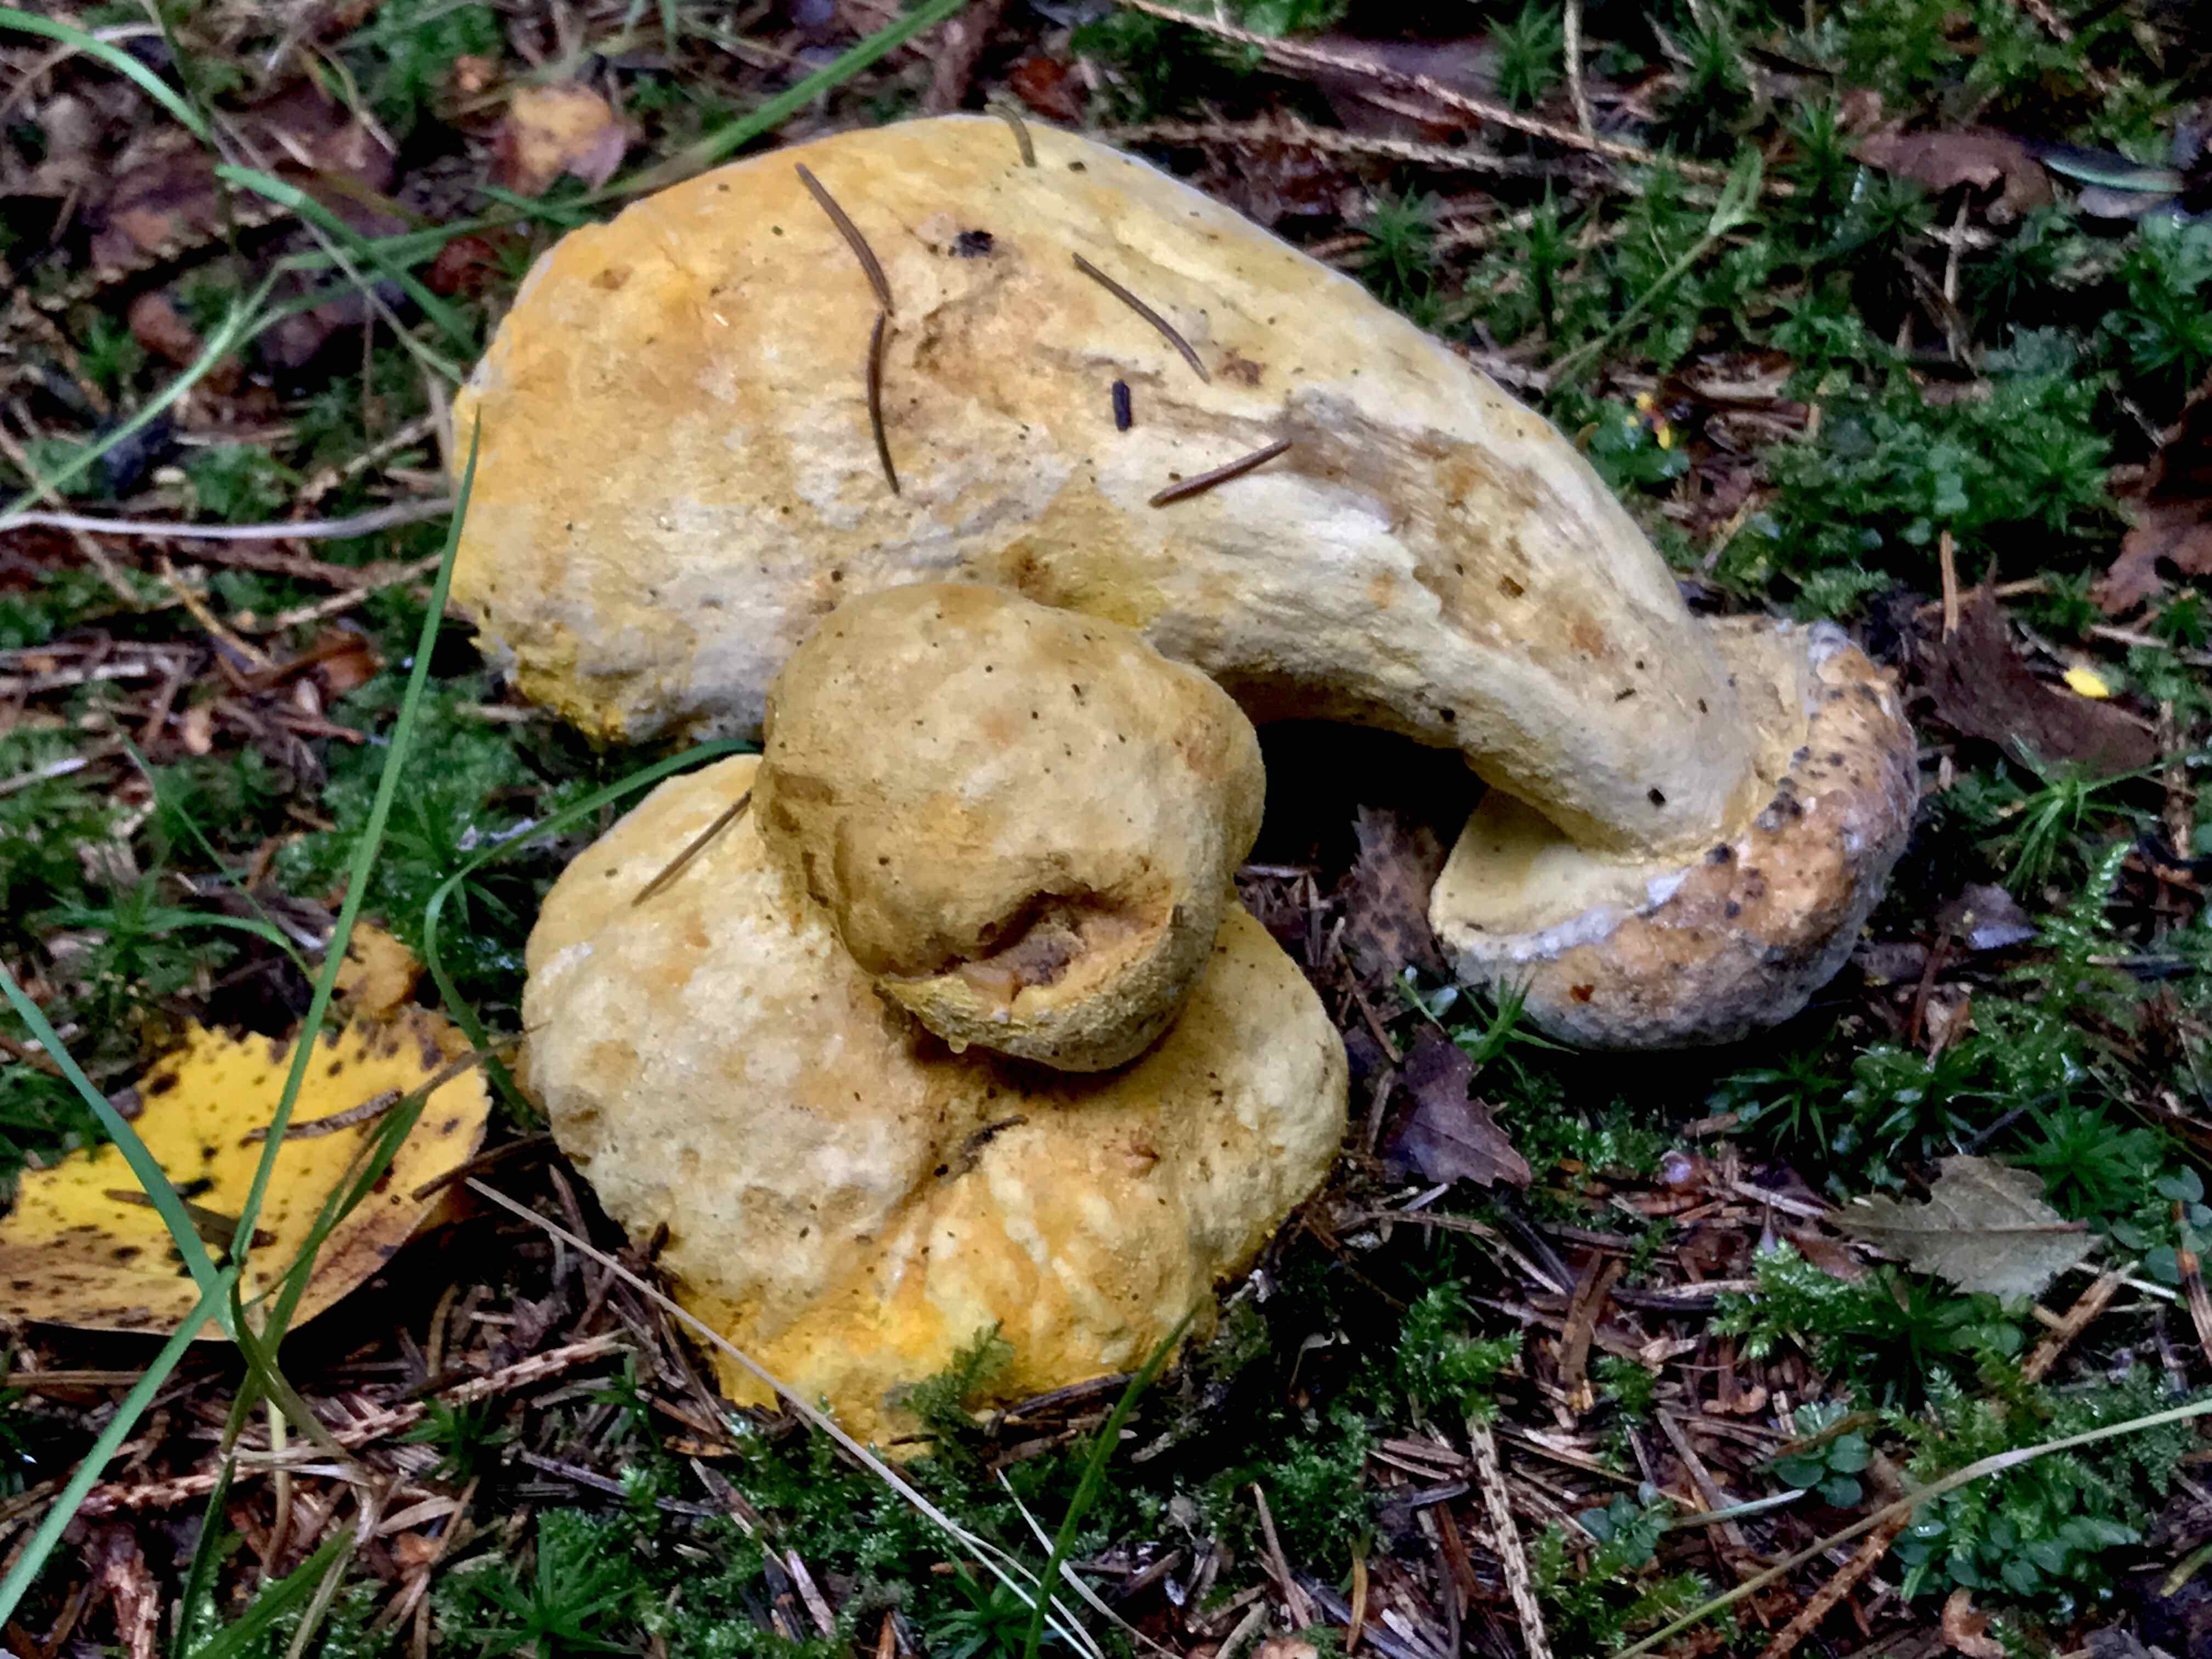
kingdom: Fungi
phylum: Ascomycota
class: Sordariomycetes
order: Hypocreales
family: Hypocreaceae
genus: Hypomyces
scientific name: Hypomyces chrysospermus
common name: gulskimmel-snylteskorpe
